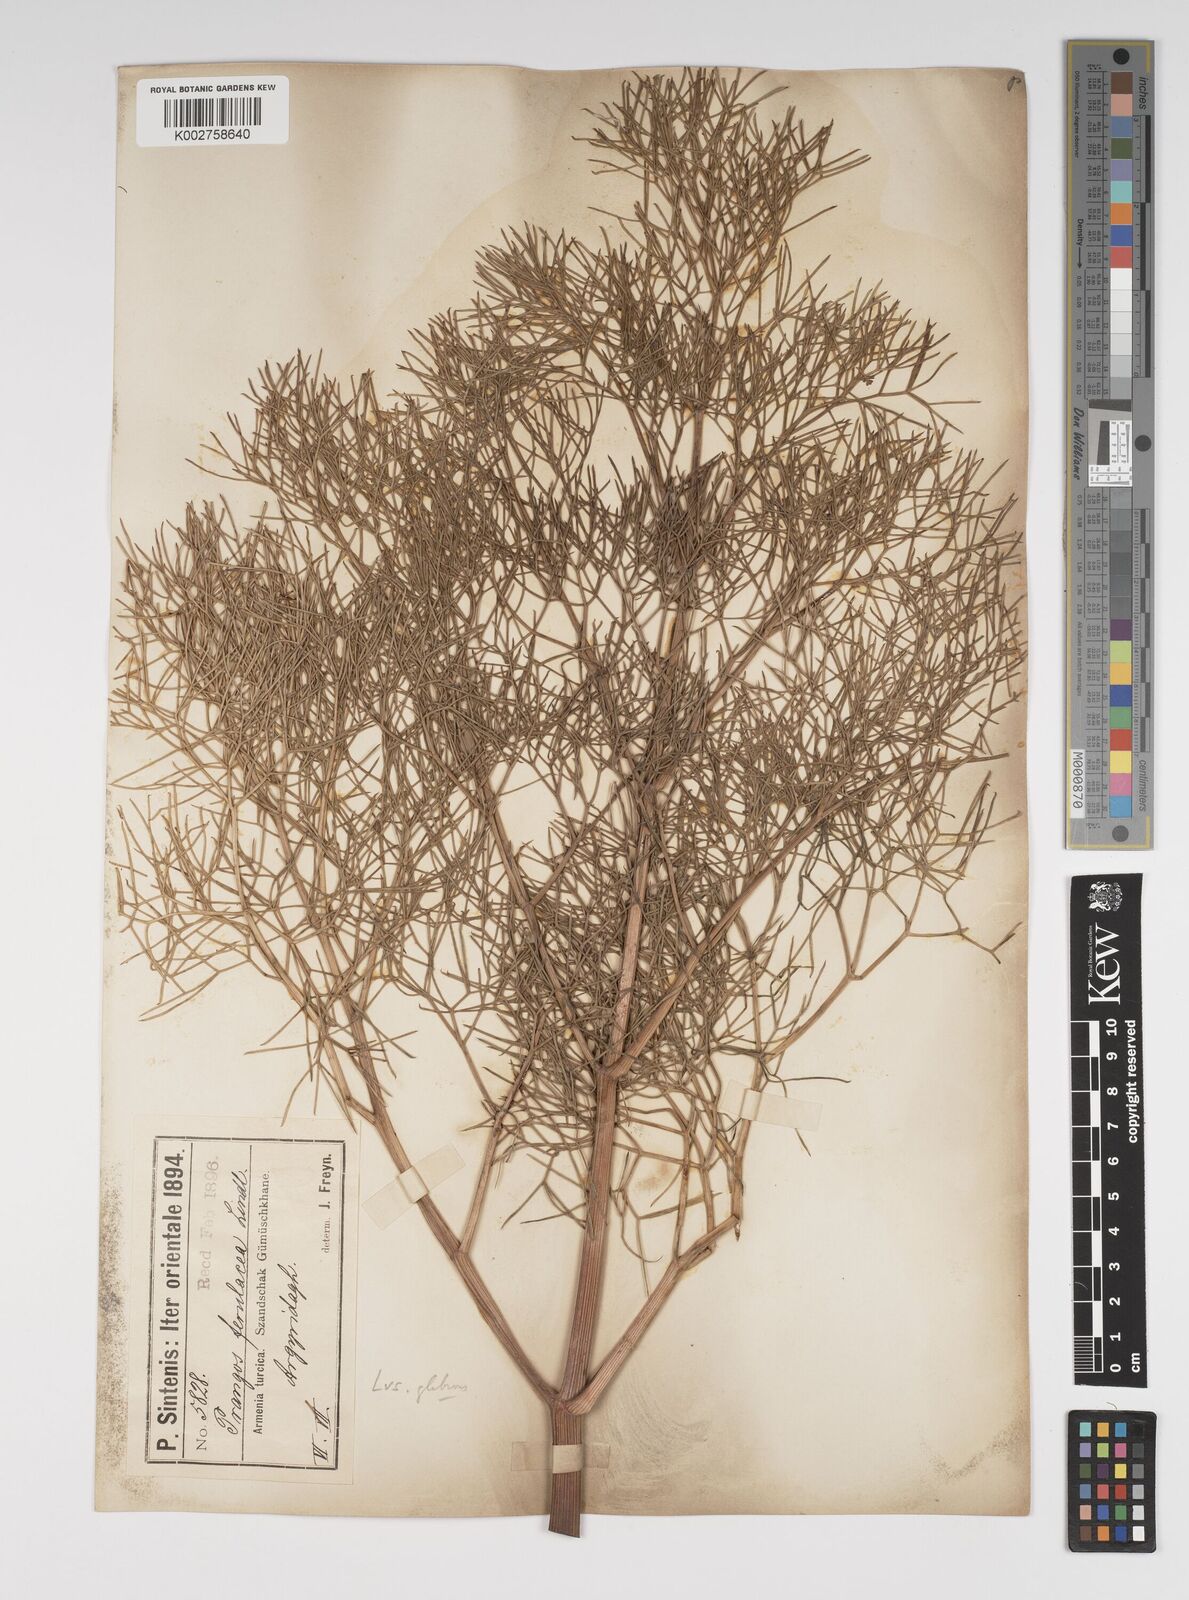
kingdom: Plantae
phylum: Tracheophyta
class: Magnoliopsida
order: Apiales
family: Apiaceae
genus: Prangos
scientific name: Prangos ferulacea
